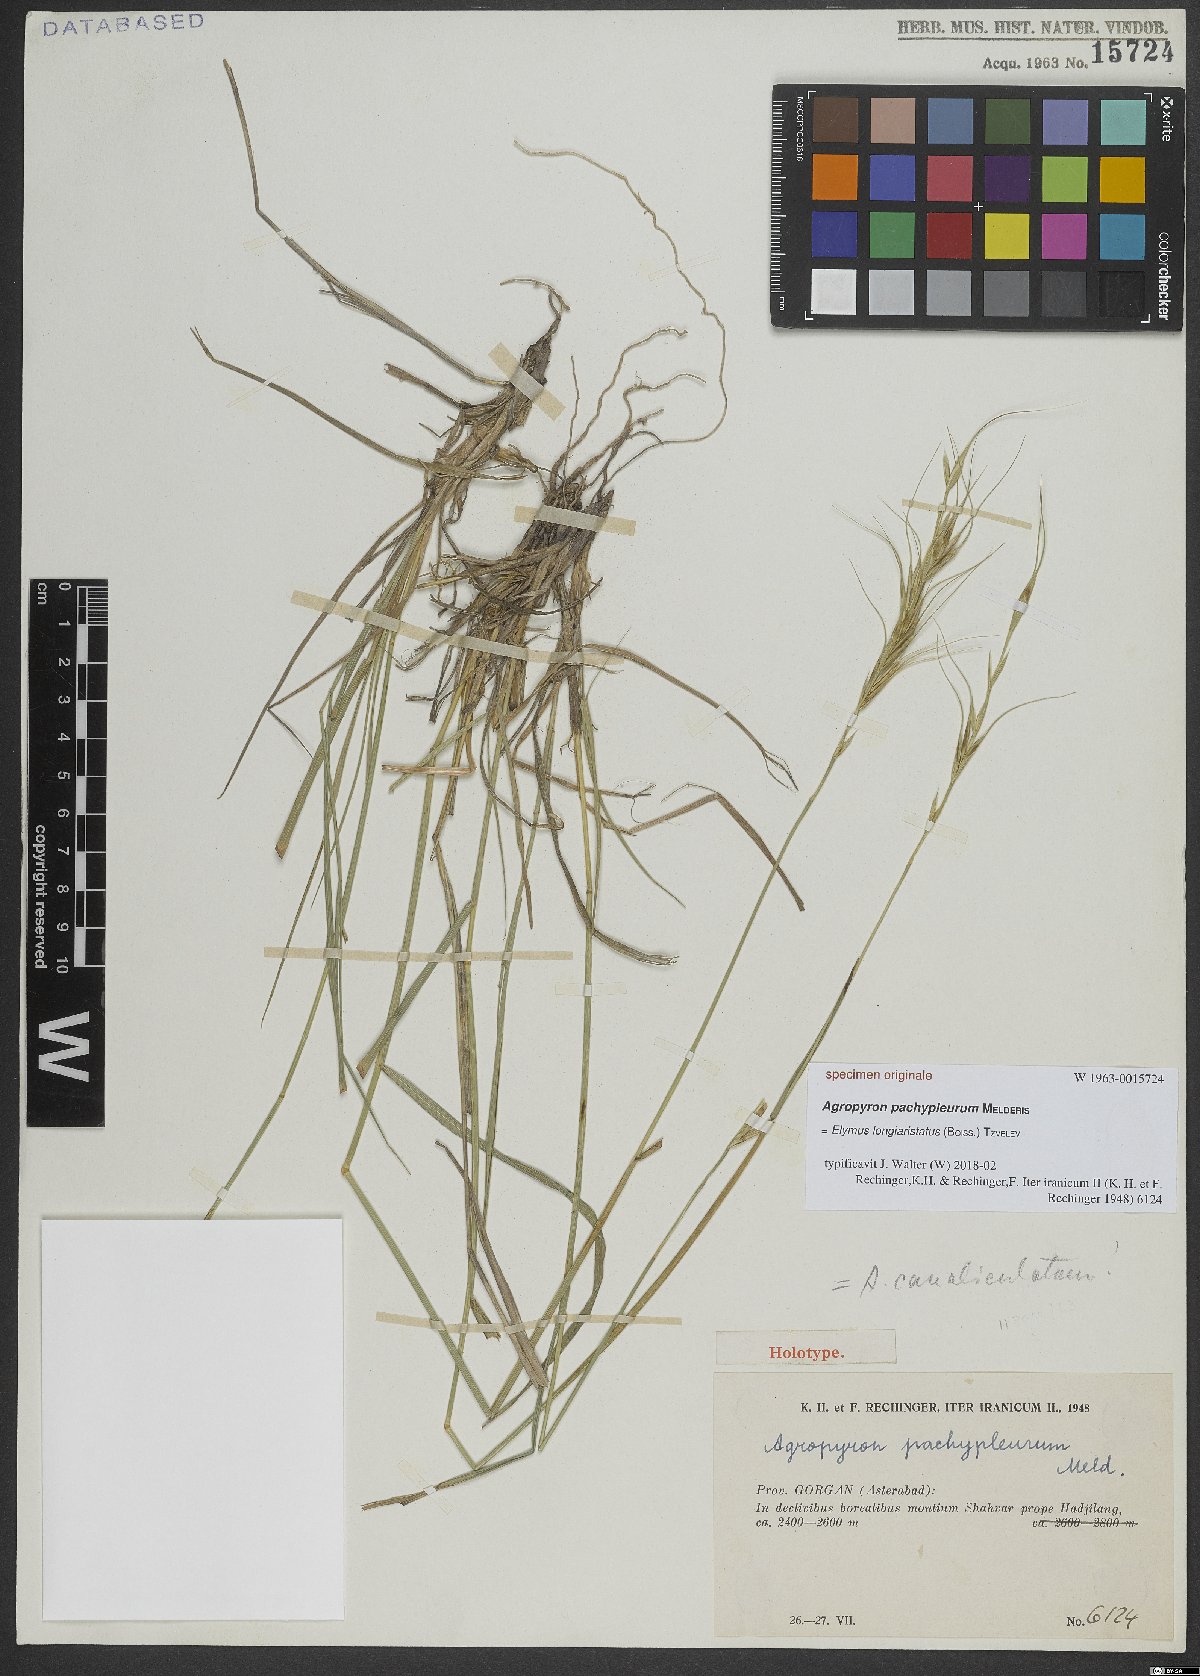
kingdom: Plantae
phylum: Tracheophyta
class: Liliopsida
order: Poales
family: Poaceae
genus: Elymus
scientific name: Elymus longiaristatus
